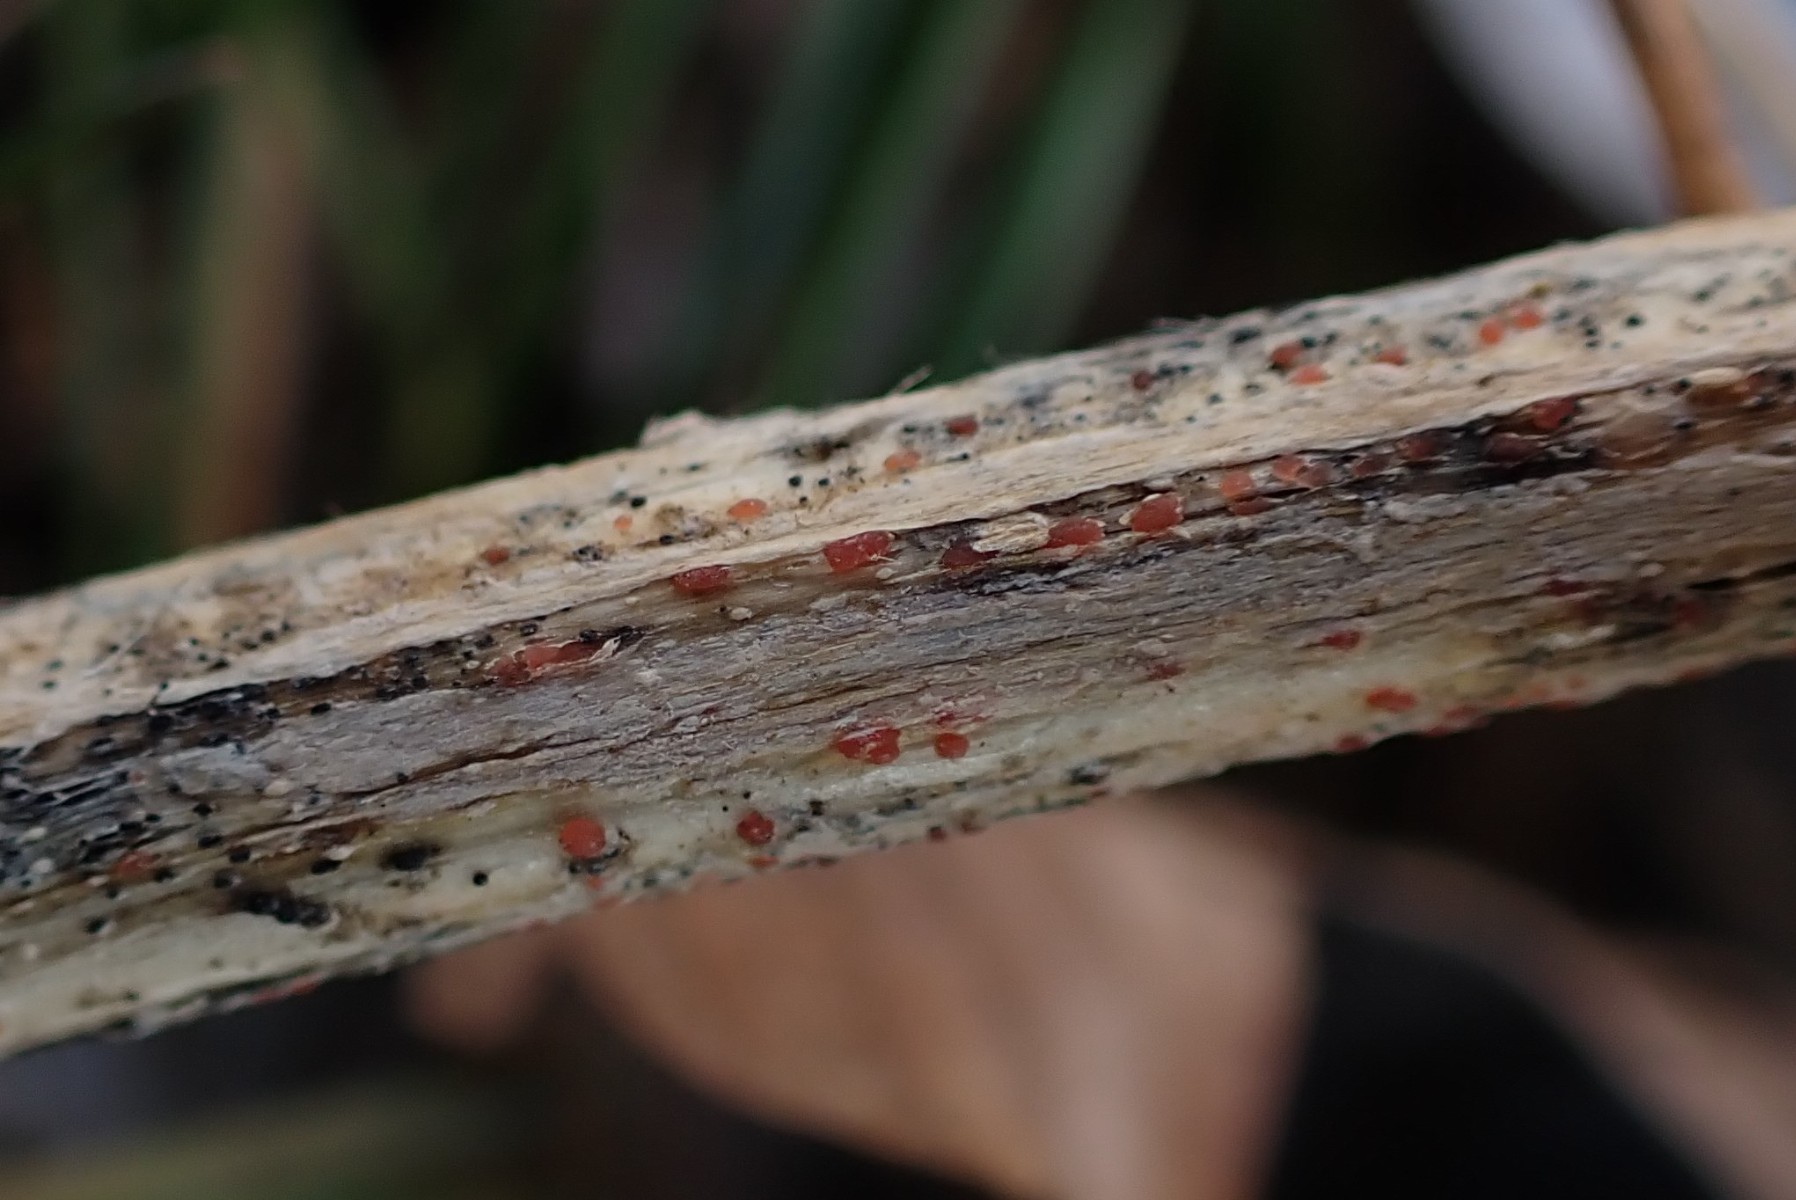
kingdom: Fungi
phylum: Ascomycota
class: Leotiomycetes
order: Helotiales
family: Calloriaceae
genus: Calloria
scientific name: Calloria urticae
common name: nælde-orangeskive
